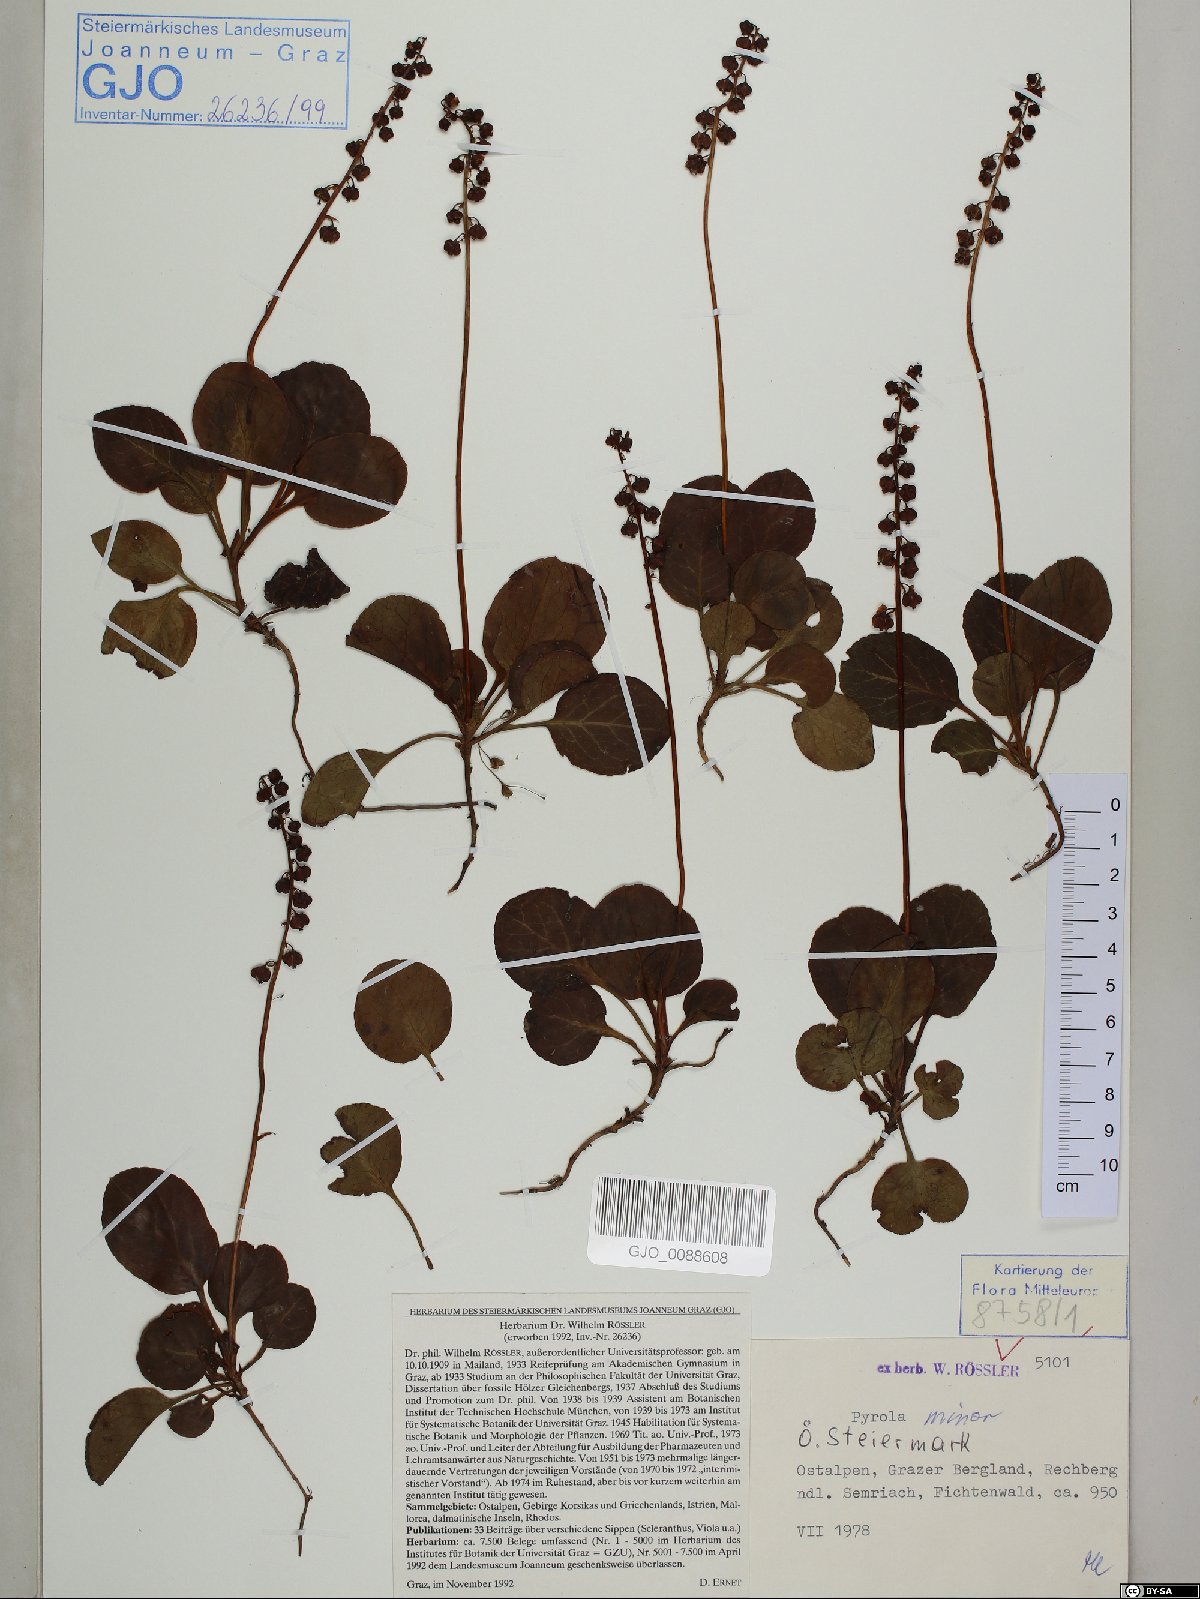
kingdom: Plantae
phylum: Tracheophyta
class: Magnoliopsida
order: Ericales
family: Ericaceae
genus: Pyrola
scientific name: Pyrola minor
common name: Common wintergreen
